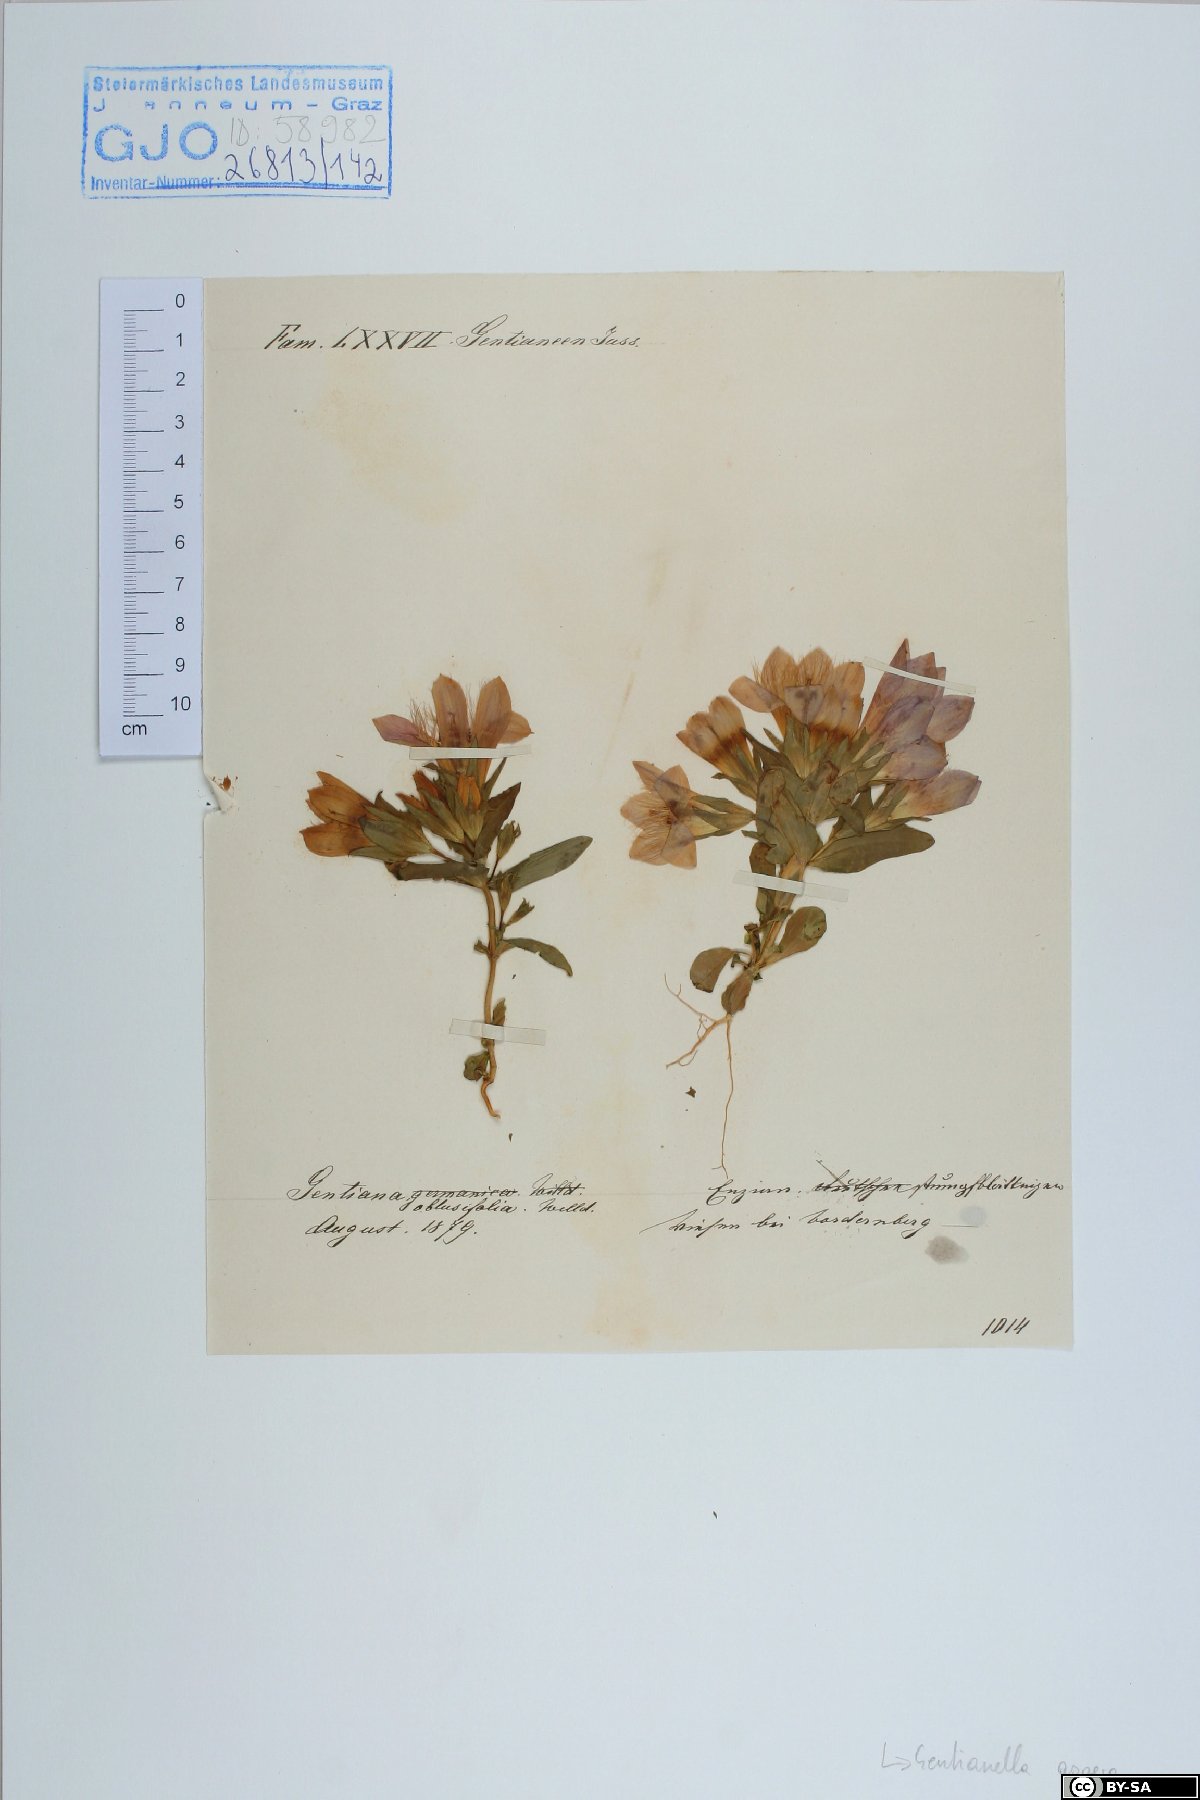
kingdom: Plantae
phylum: Tracheophyta
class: Magnoliopsida
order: Gentianales
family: Gentianaceae
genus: Gentianella
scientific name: Gentianella obtusifolia
